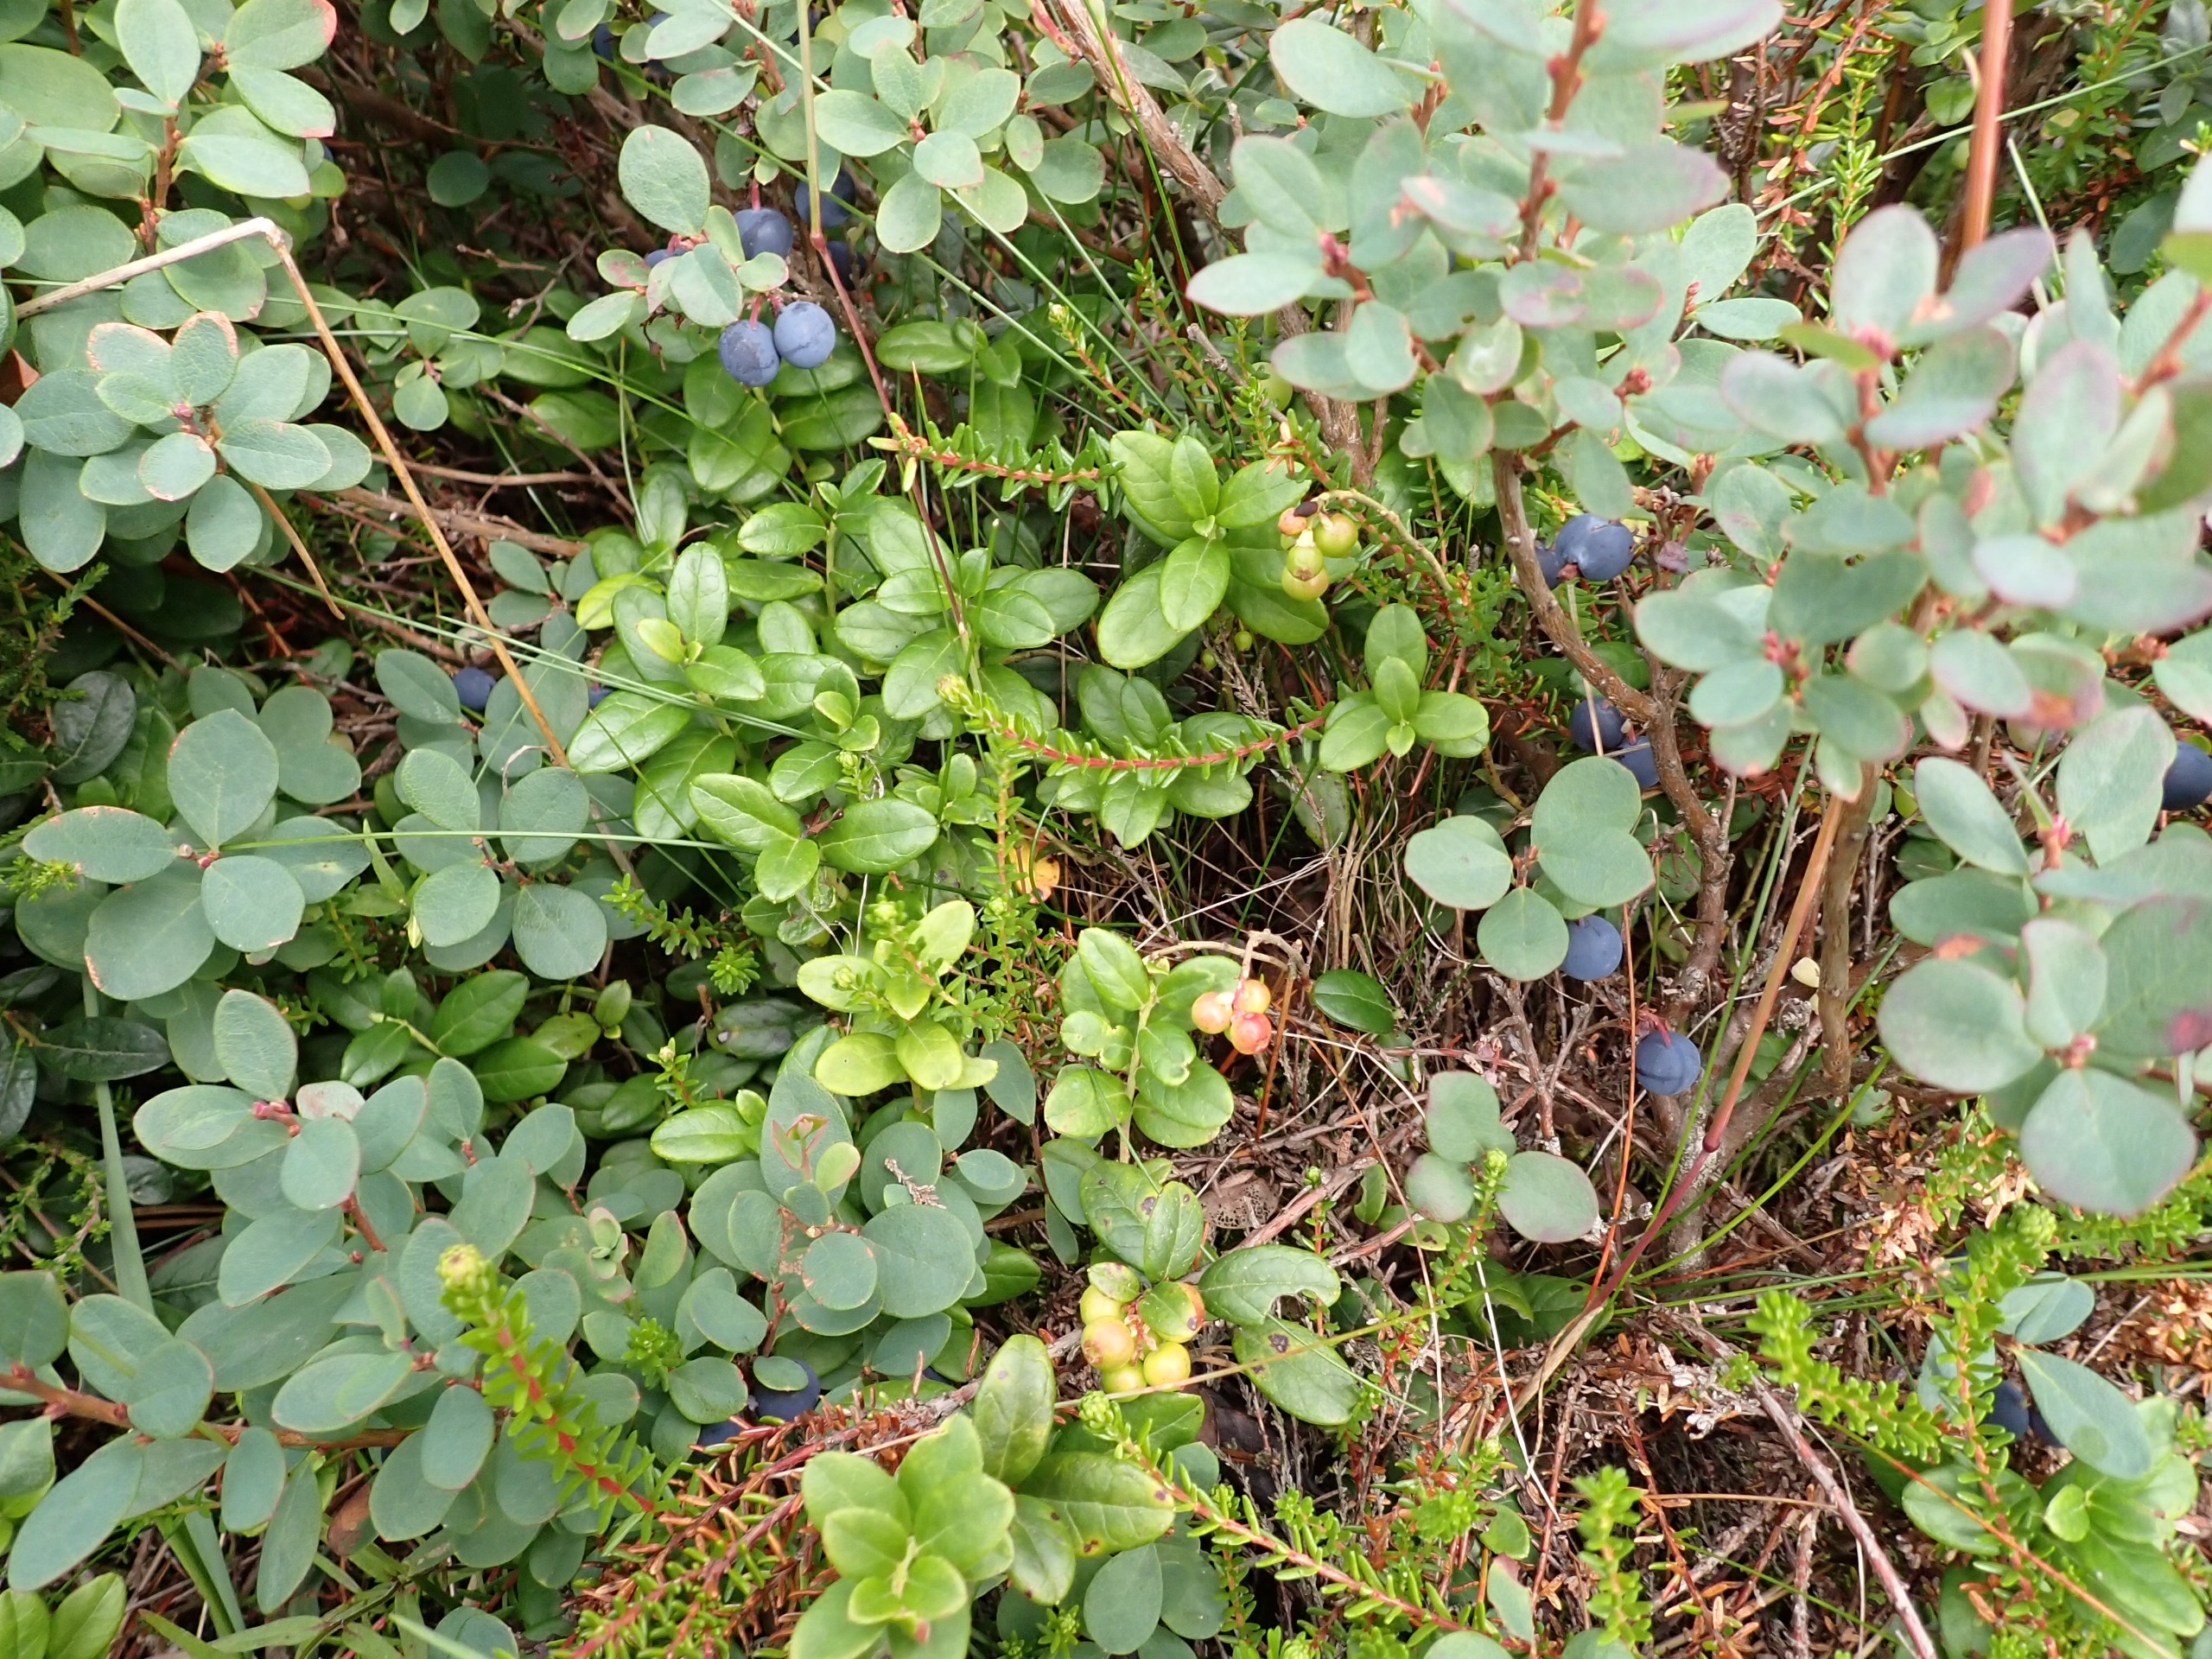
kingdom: Plantae
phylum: Tracheophyta
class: Magnoliopsida
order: Ericales
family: Ericaceae
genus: Vaccinium
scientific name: Vaccinium vitis-idaea
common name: Tyttebær
